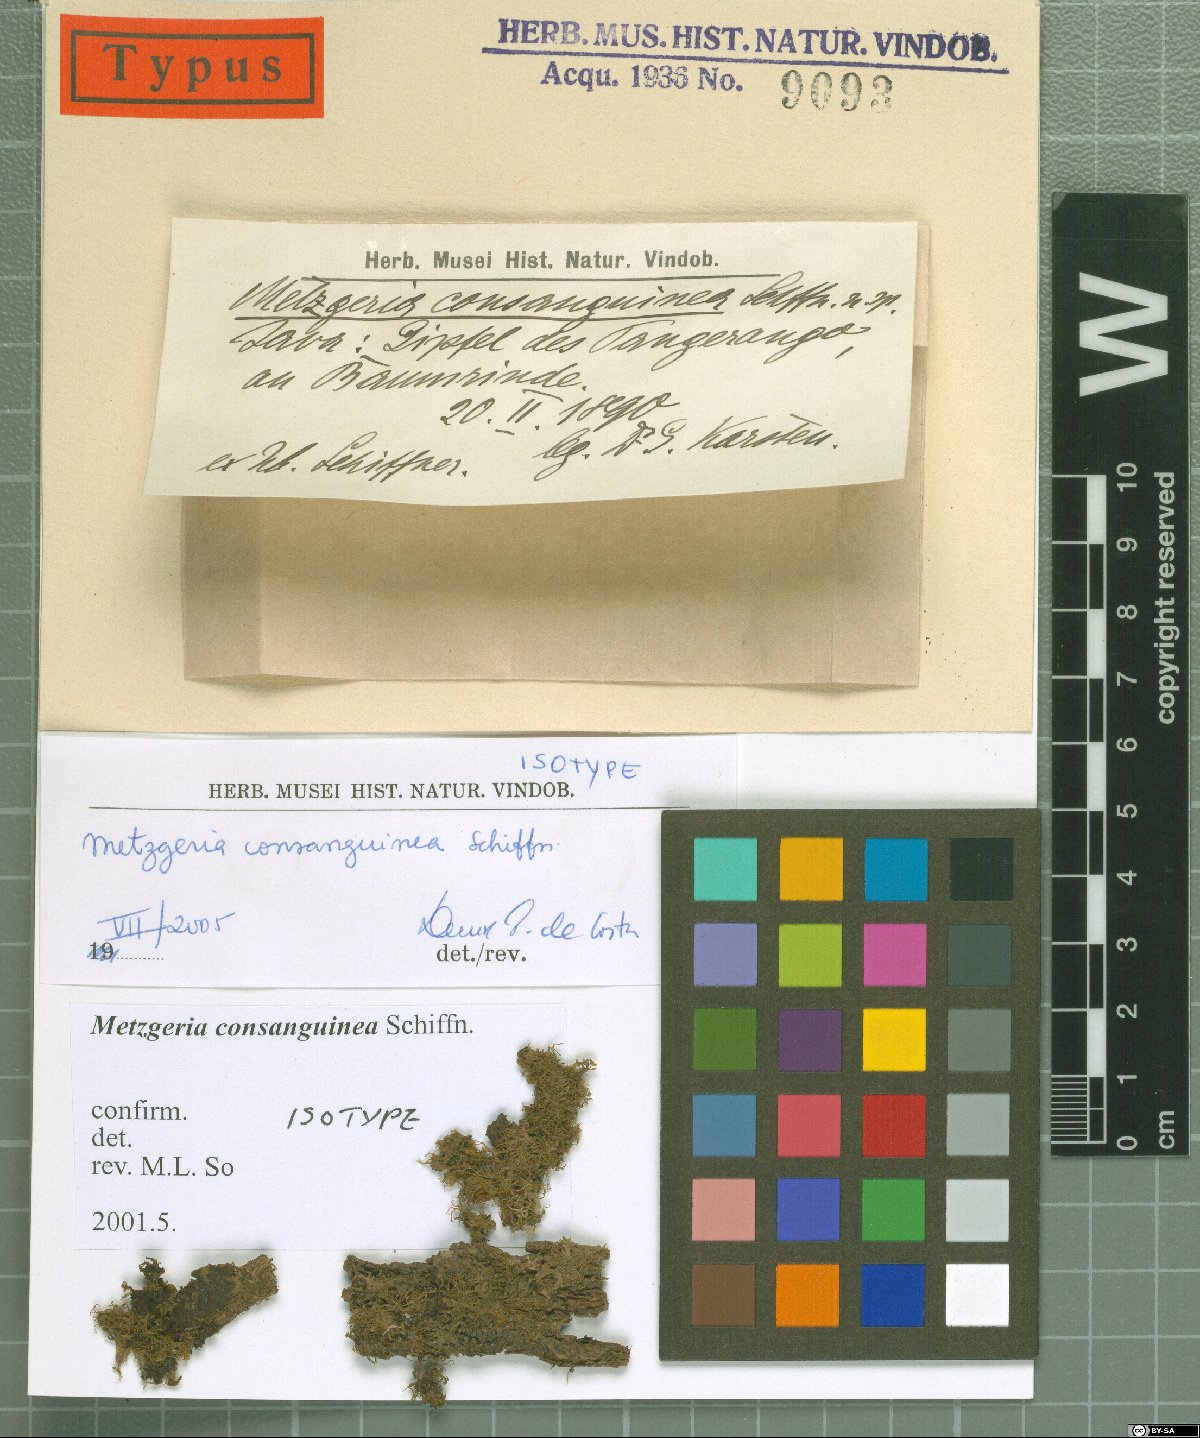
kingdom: Plantae
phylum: Marchantiophyta
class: Jungermanniopsida
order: Metzgeriales
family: Metzgeriaceae
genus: Metzgeria
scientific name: Metzgeria consanguinea
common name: Whiskered veilwort
